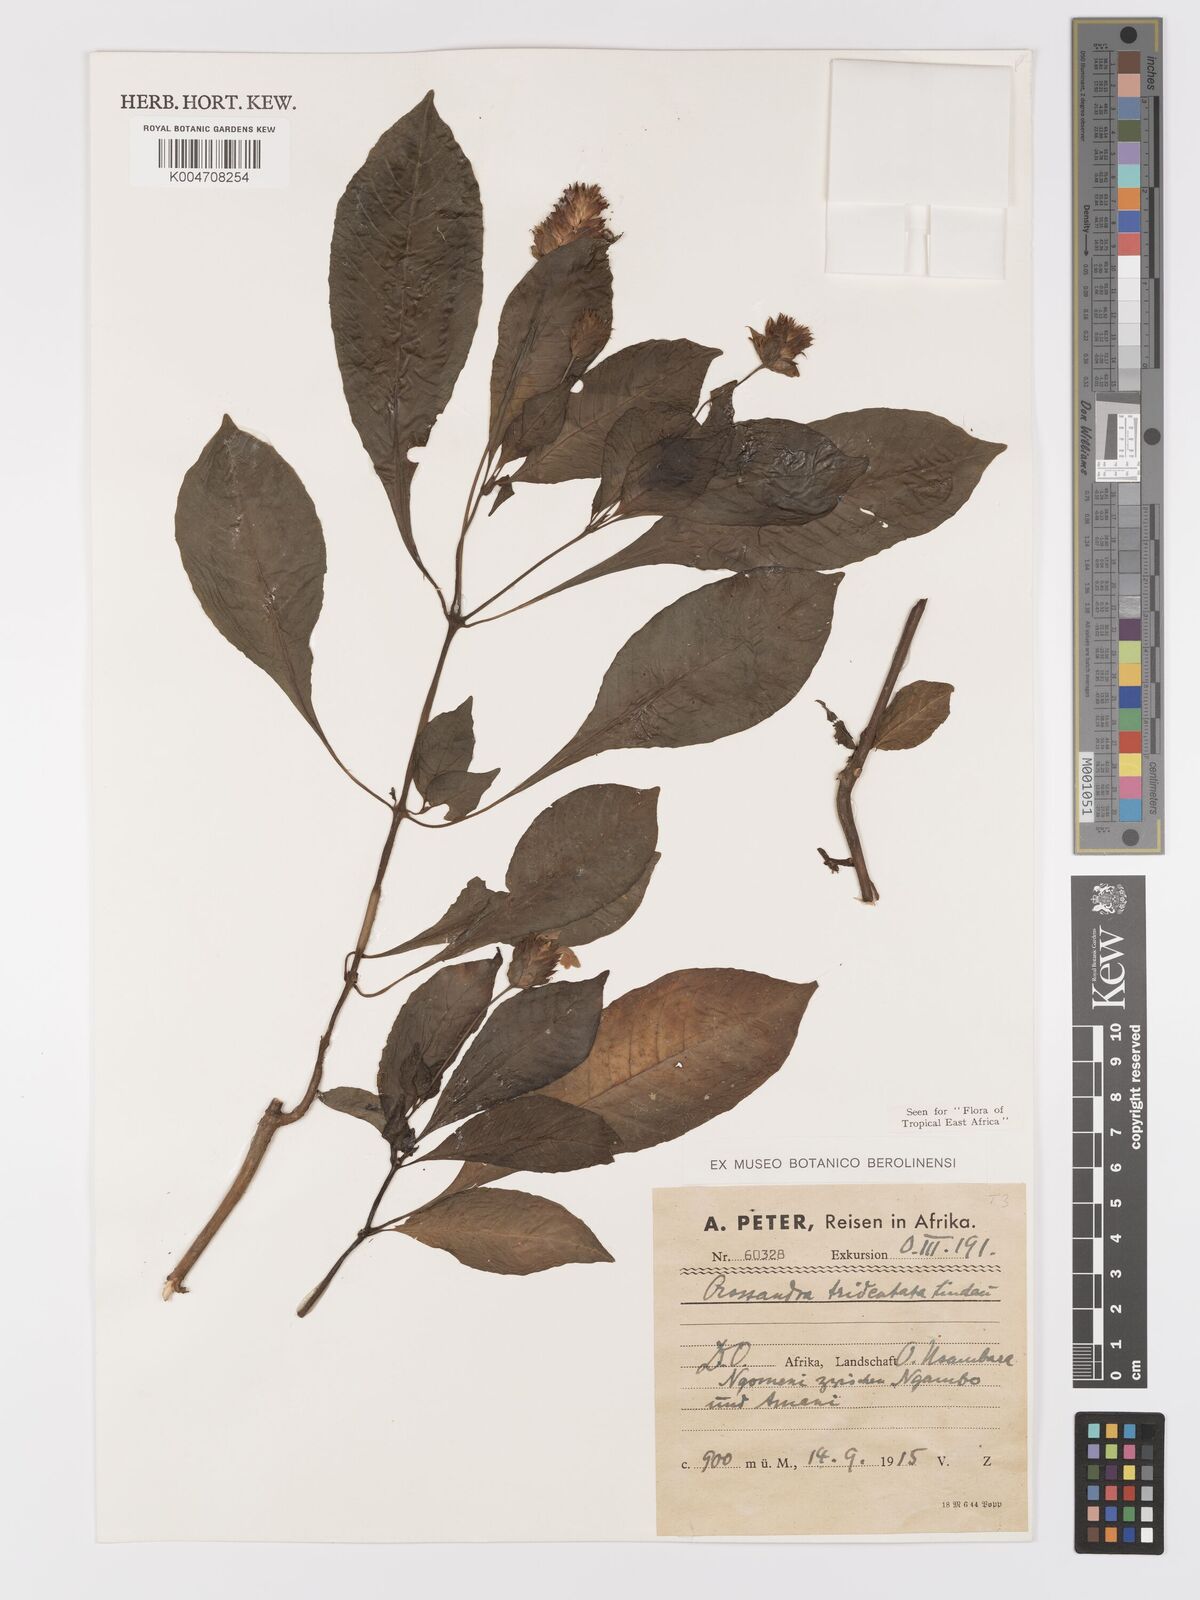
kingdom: Plantae
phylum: Tracheophyta
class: Magnoliopsida
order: Lamiales
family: Acanthaceae
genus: Crossandra
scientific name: Crossandra tridentata
